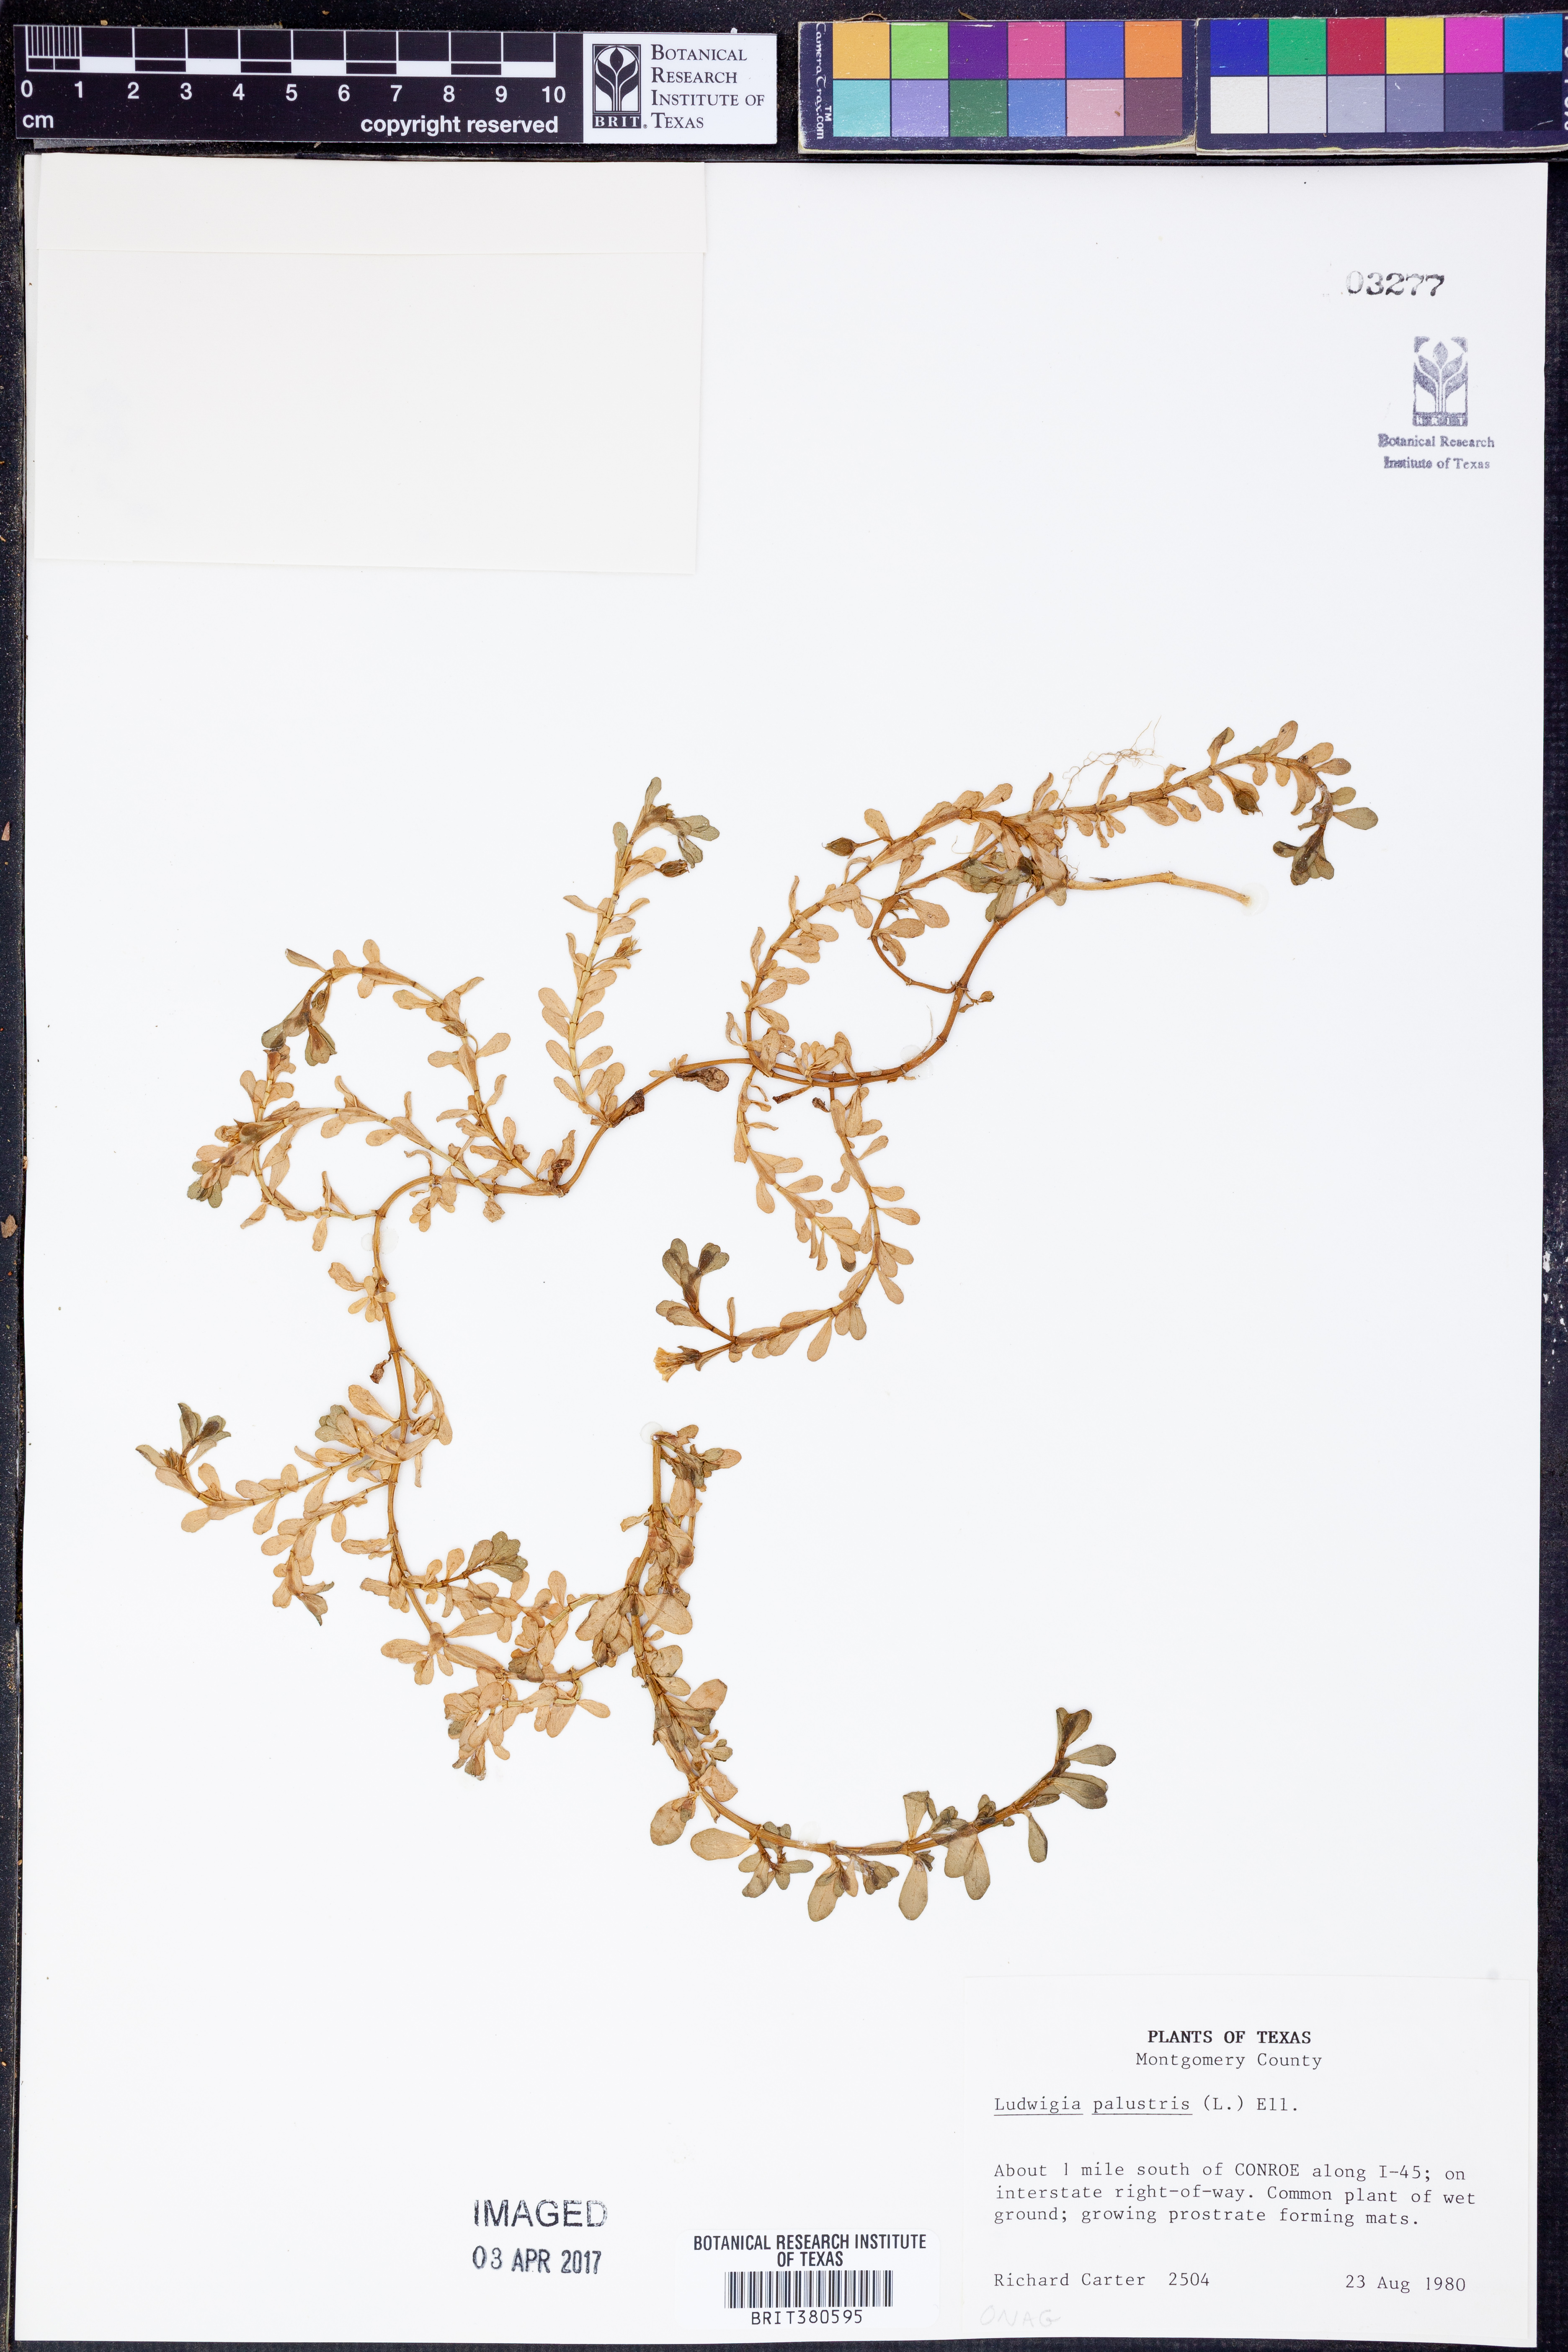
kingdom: Plantae
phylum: Tracheophyta
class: Magnoliopsida
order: Myrtales
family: Onagraceae
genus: Ludwigia
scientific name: Ludwigia palustris
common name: Hampshire-purslane
